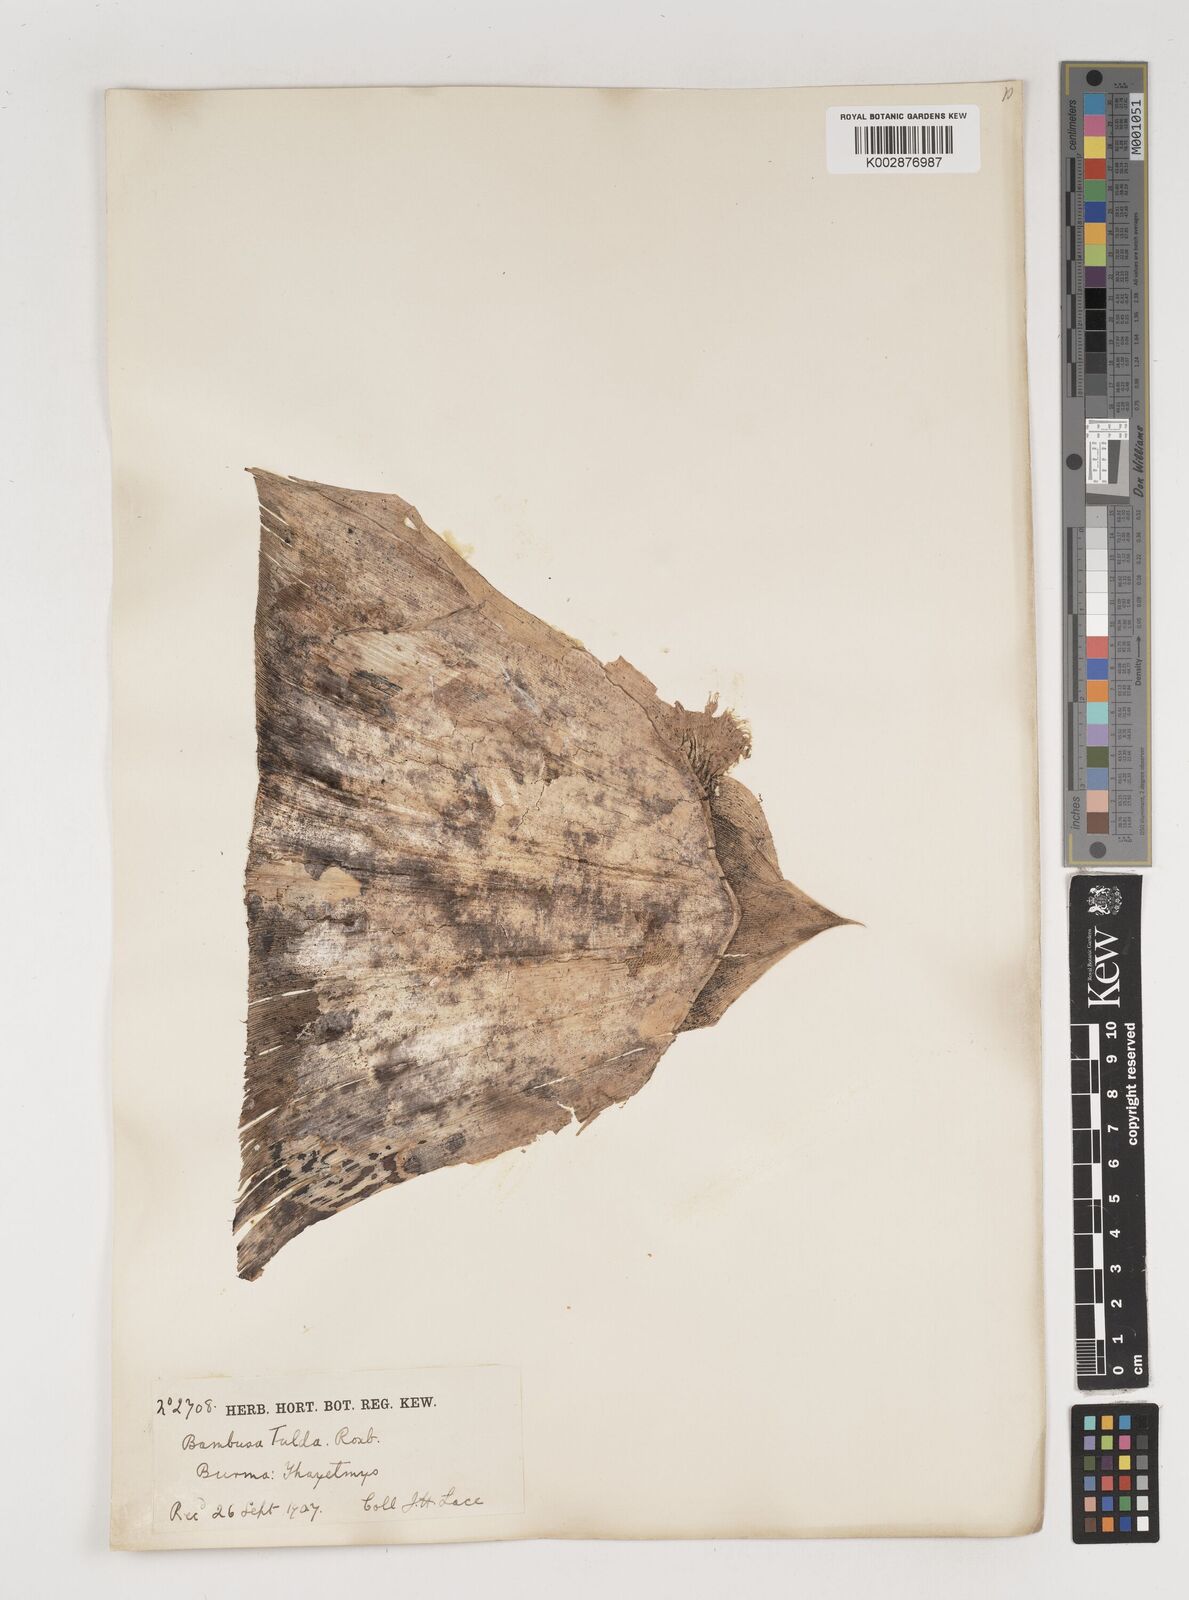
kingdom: Plantae
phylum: Tracheophyta
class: Liliopsida
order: Poales
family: Poaceae
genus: Bambusa
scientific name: Bambusa tulda
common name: Bengal bamboo
